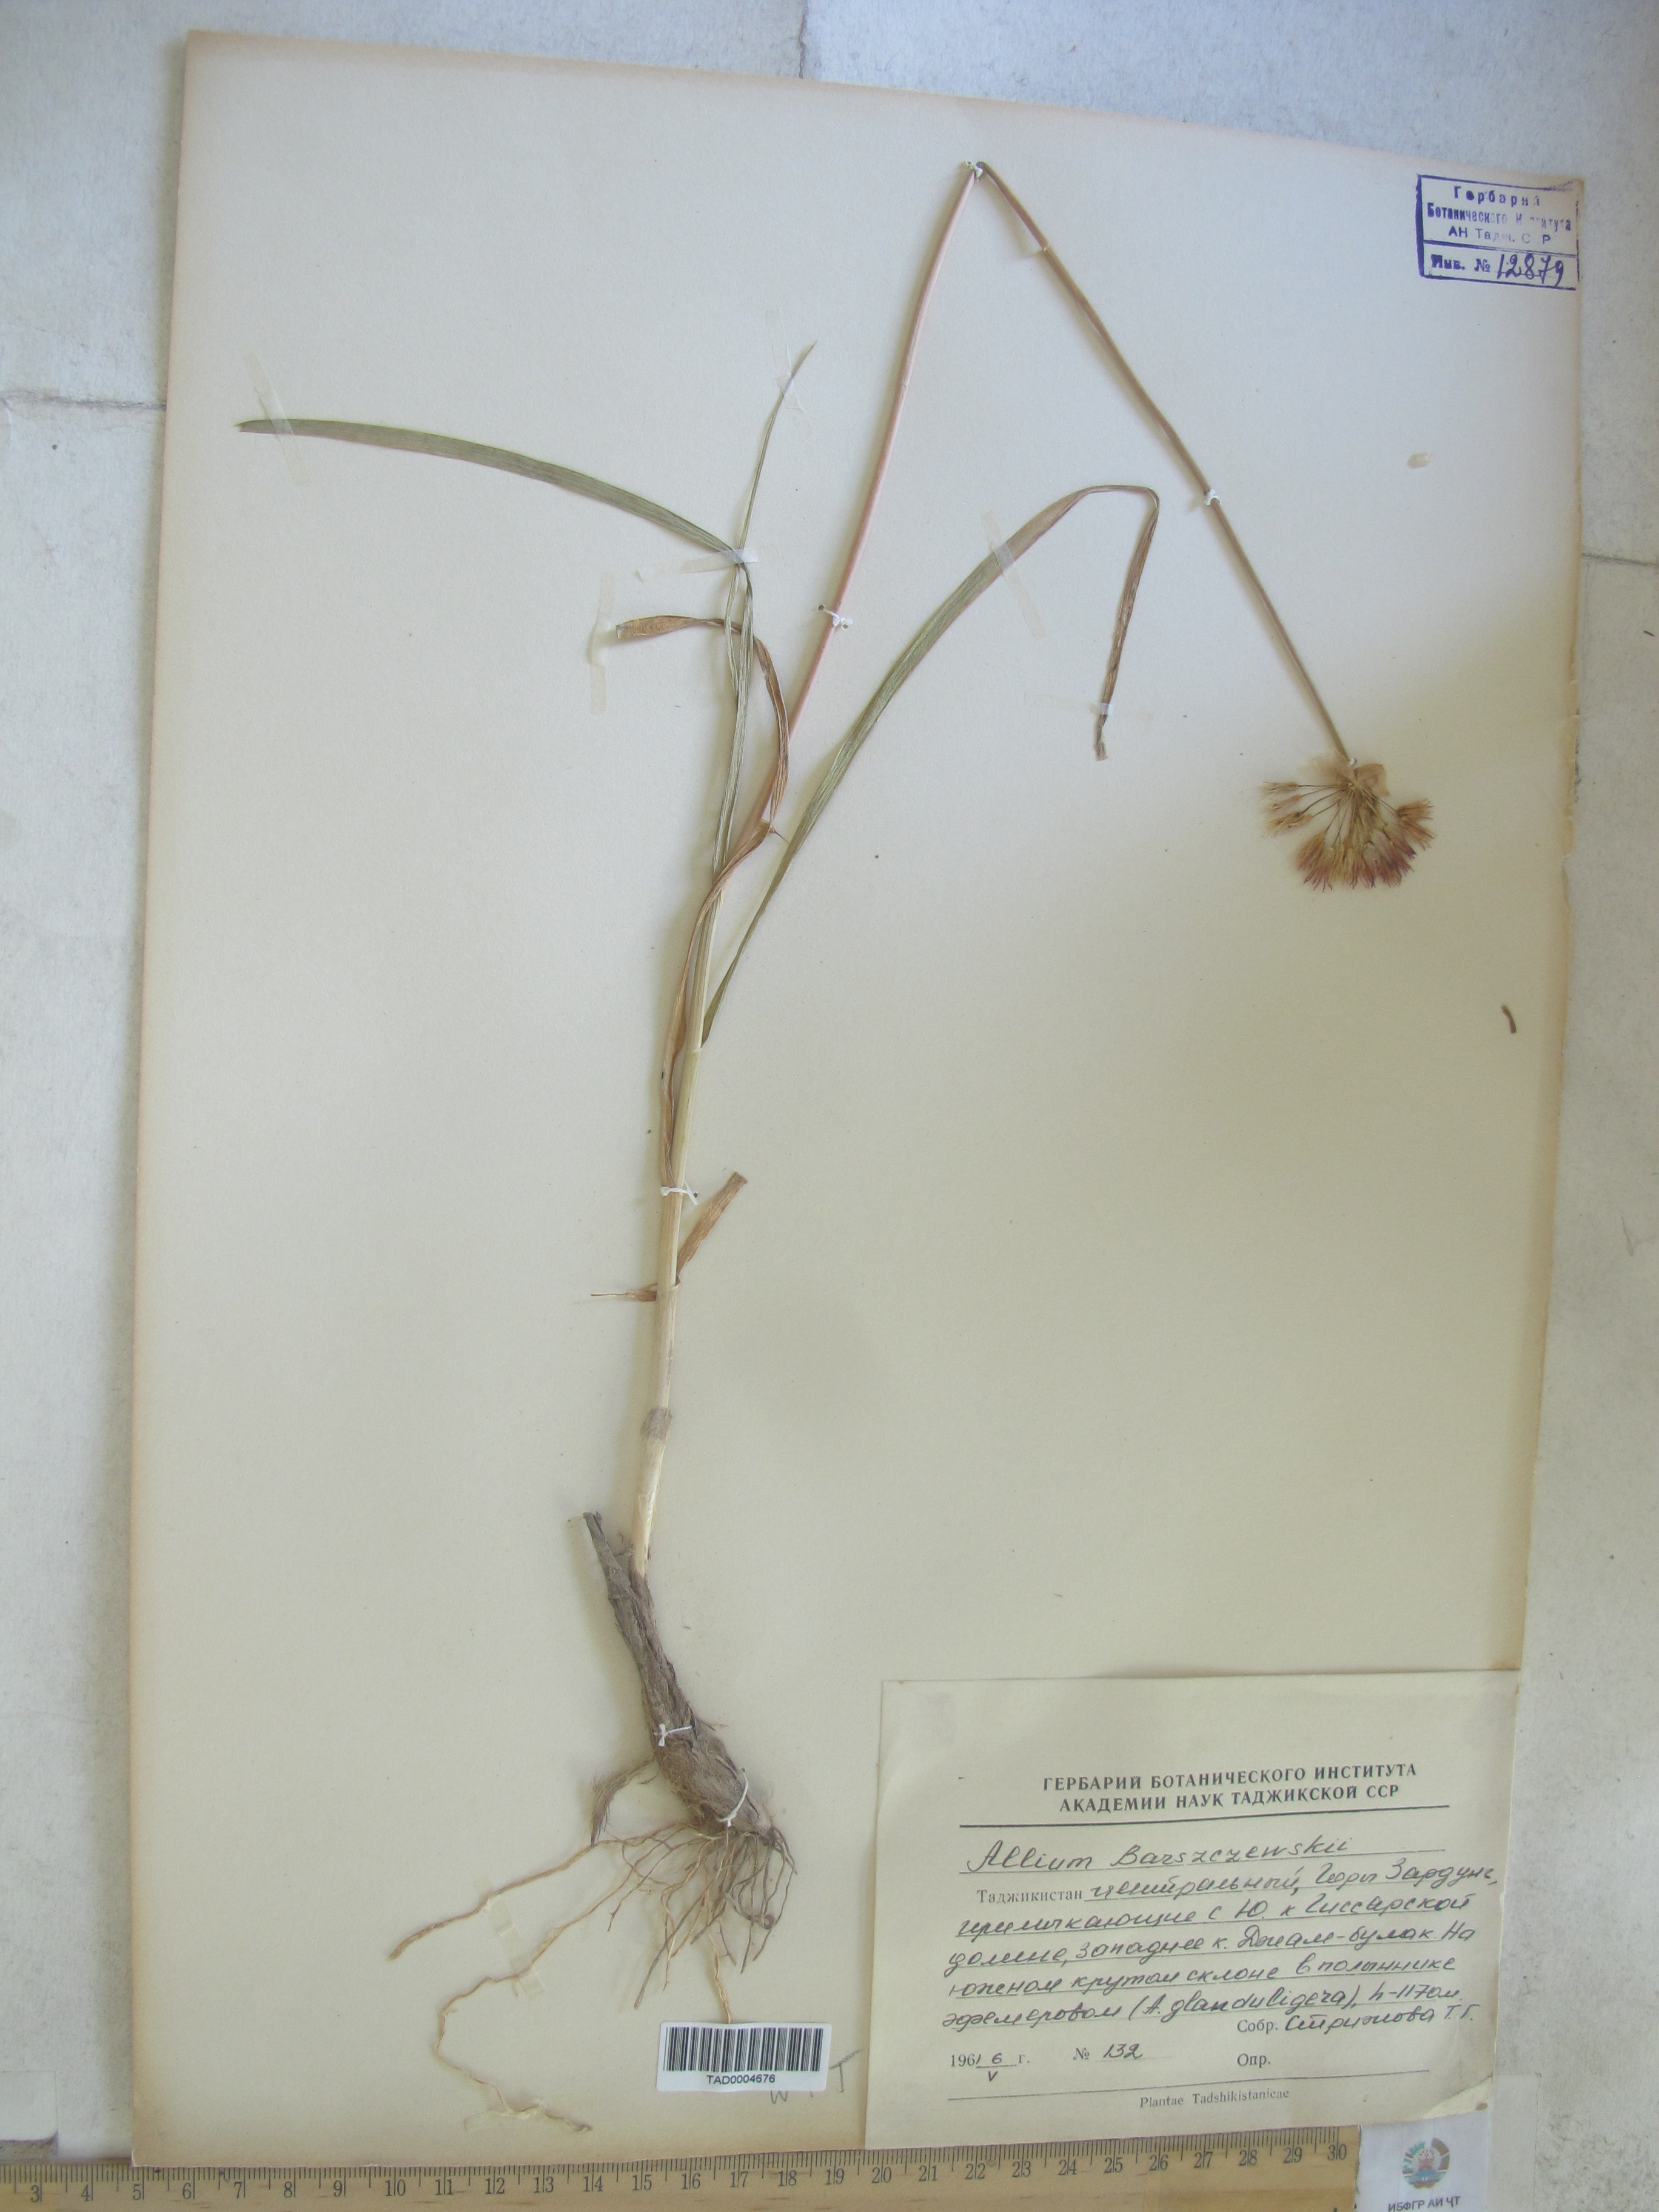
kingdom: Plantae
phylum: Tracheophyta
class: Liliopsida
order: Asparagales
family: Amaryllidaceae
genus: Allium
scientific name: Allium barsczewskii
